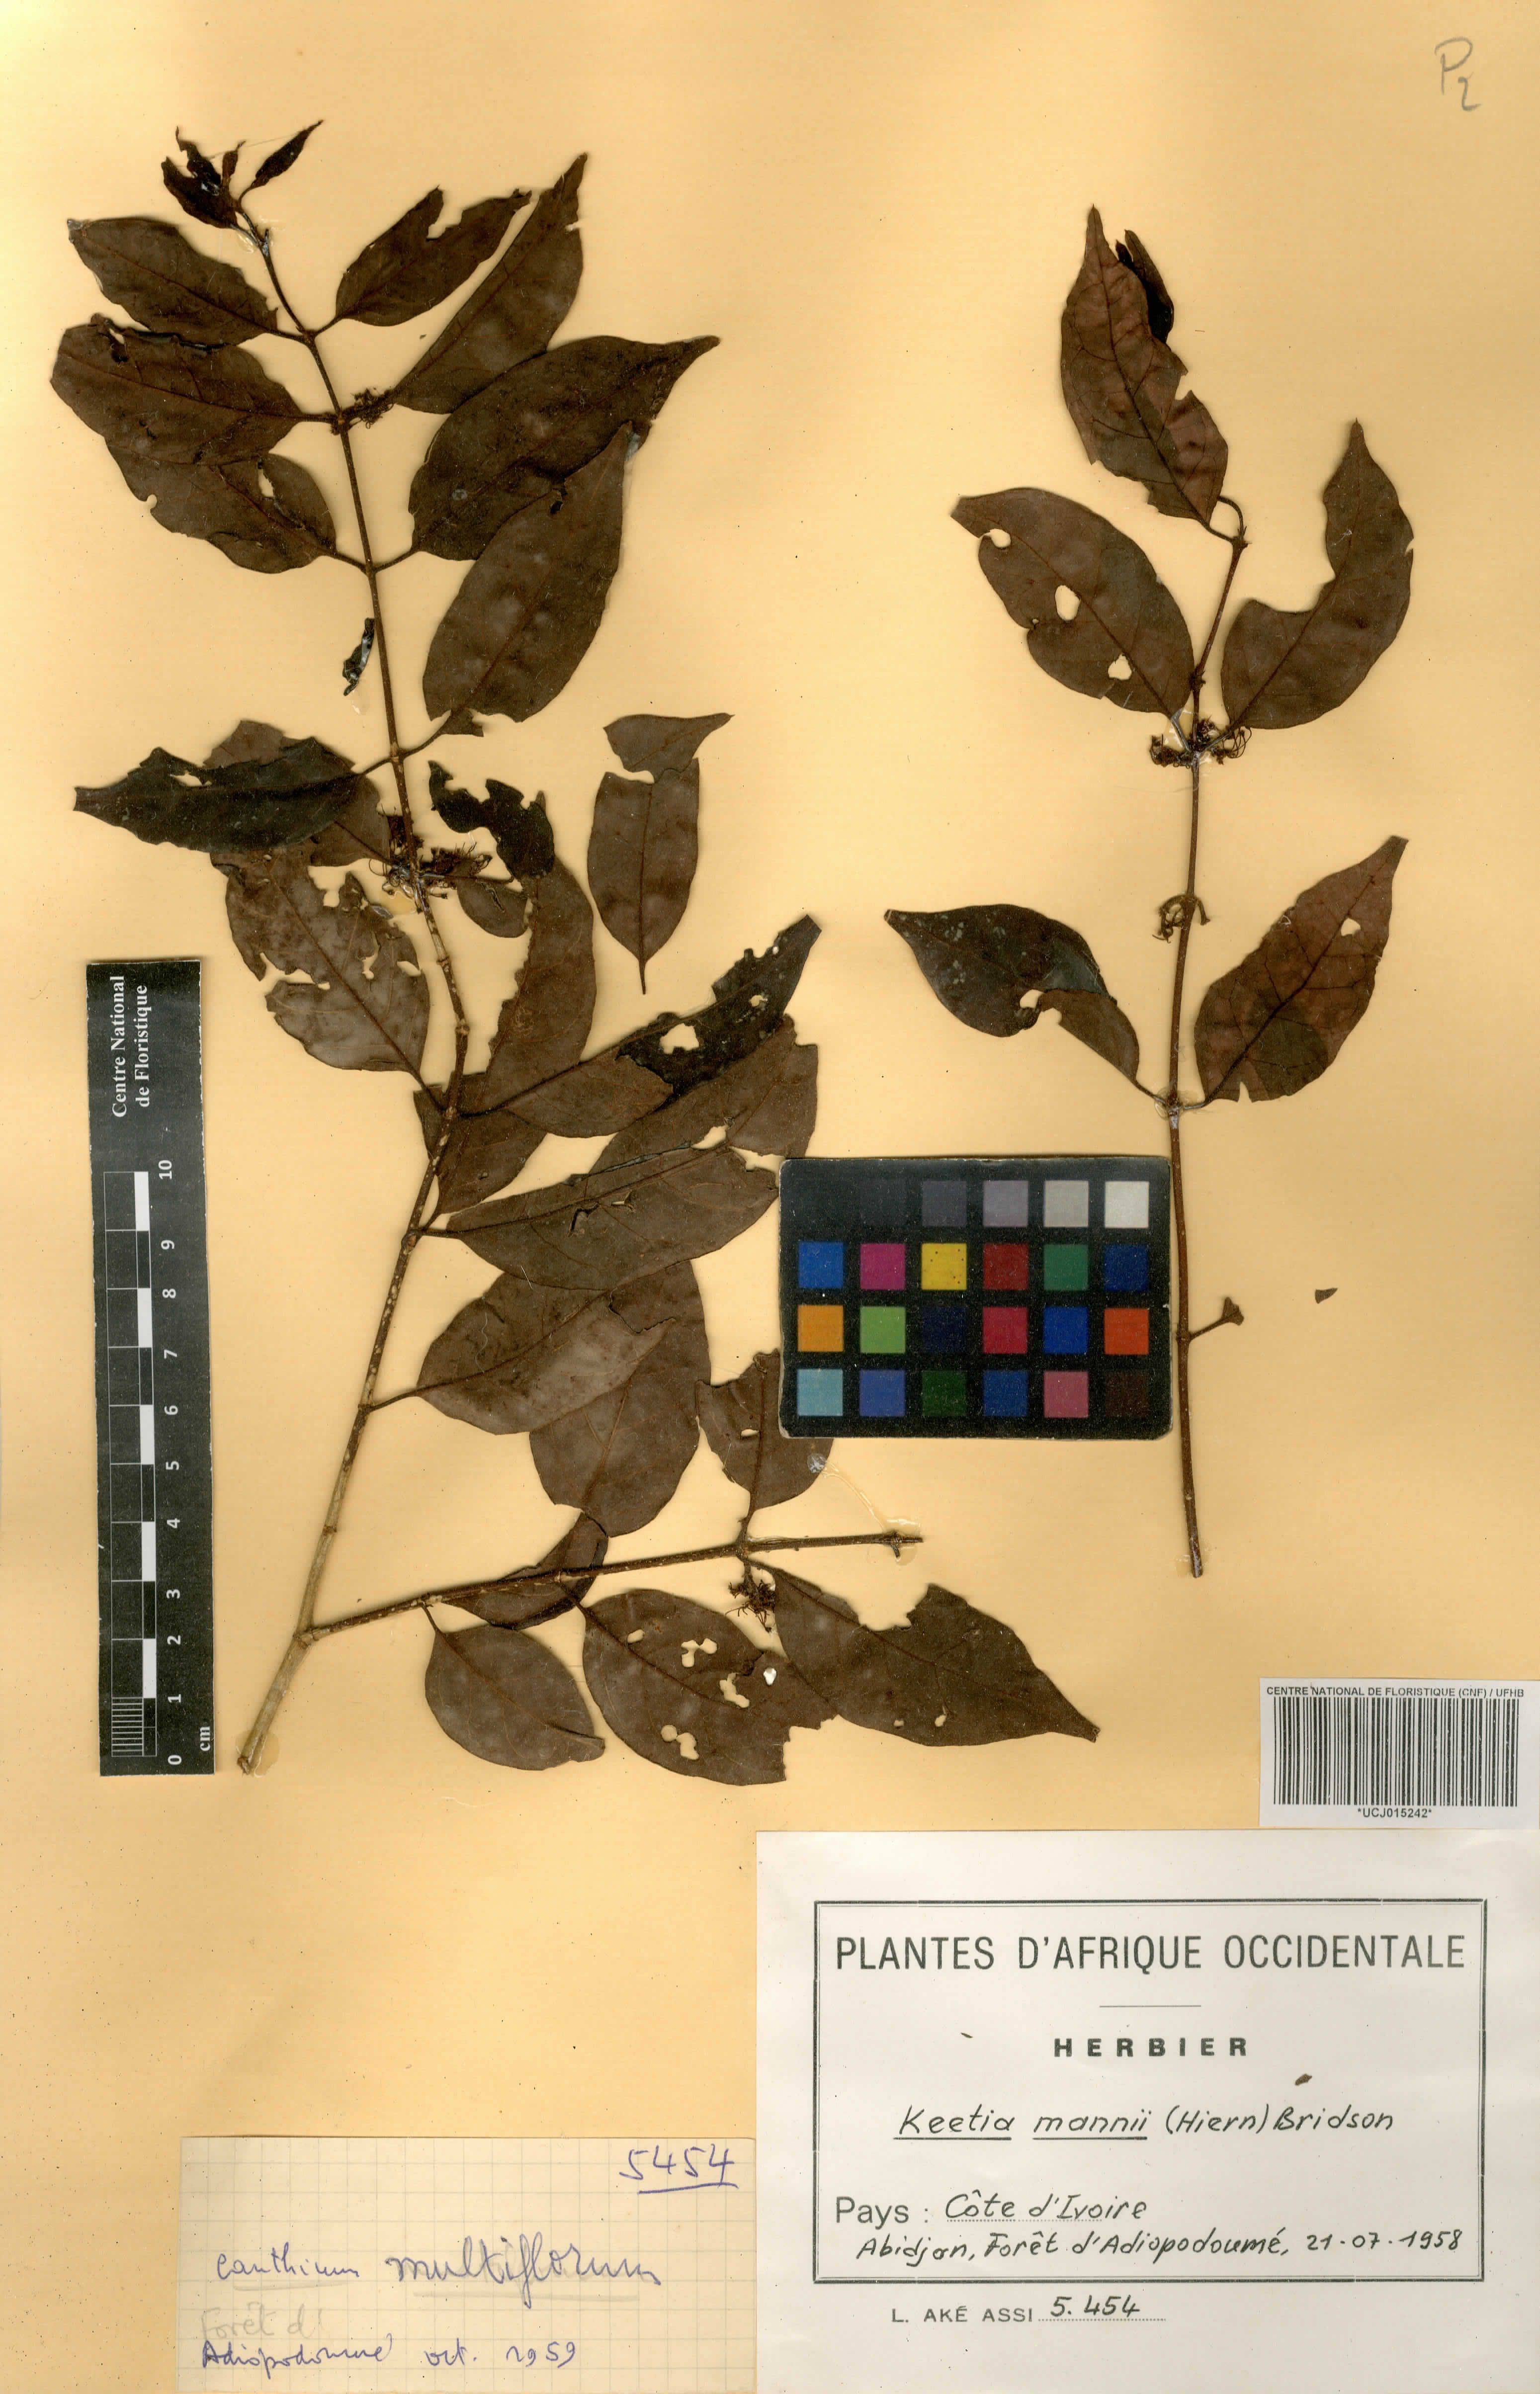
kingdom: Plantae
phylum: Tracheophyta
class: Magnoliopsida
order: Gentianales
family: Rubiaceae
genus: Keetia
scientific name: Keetia mannii
